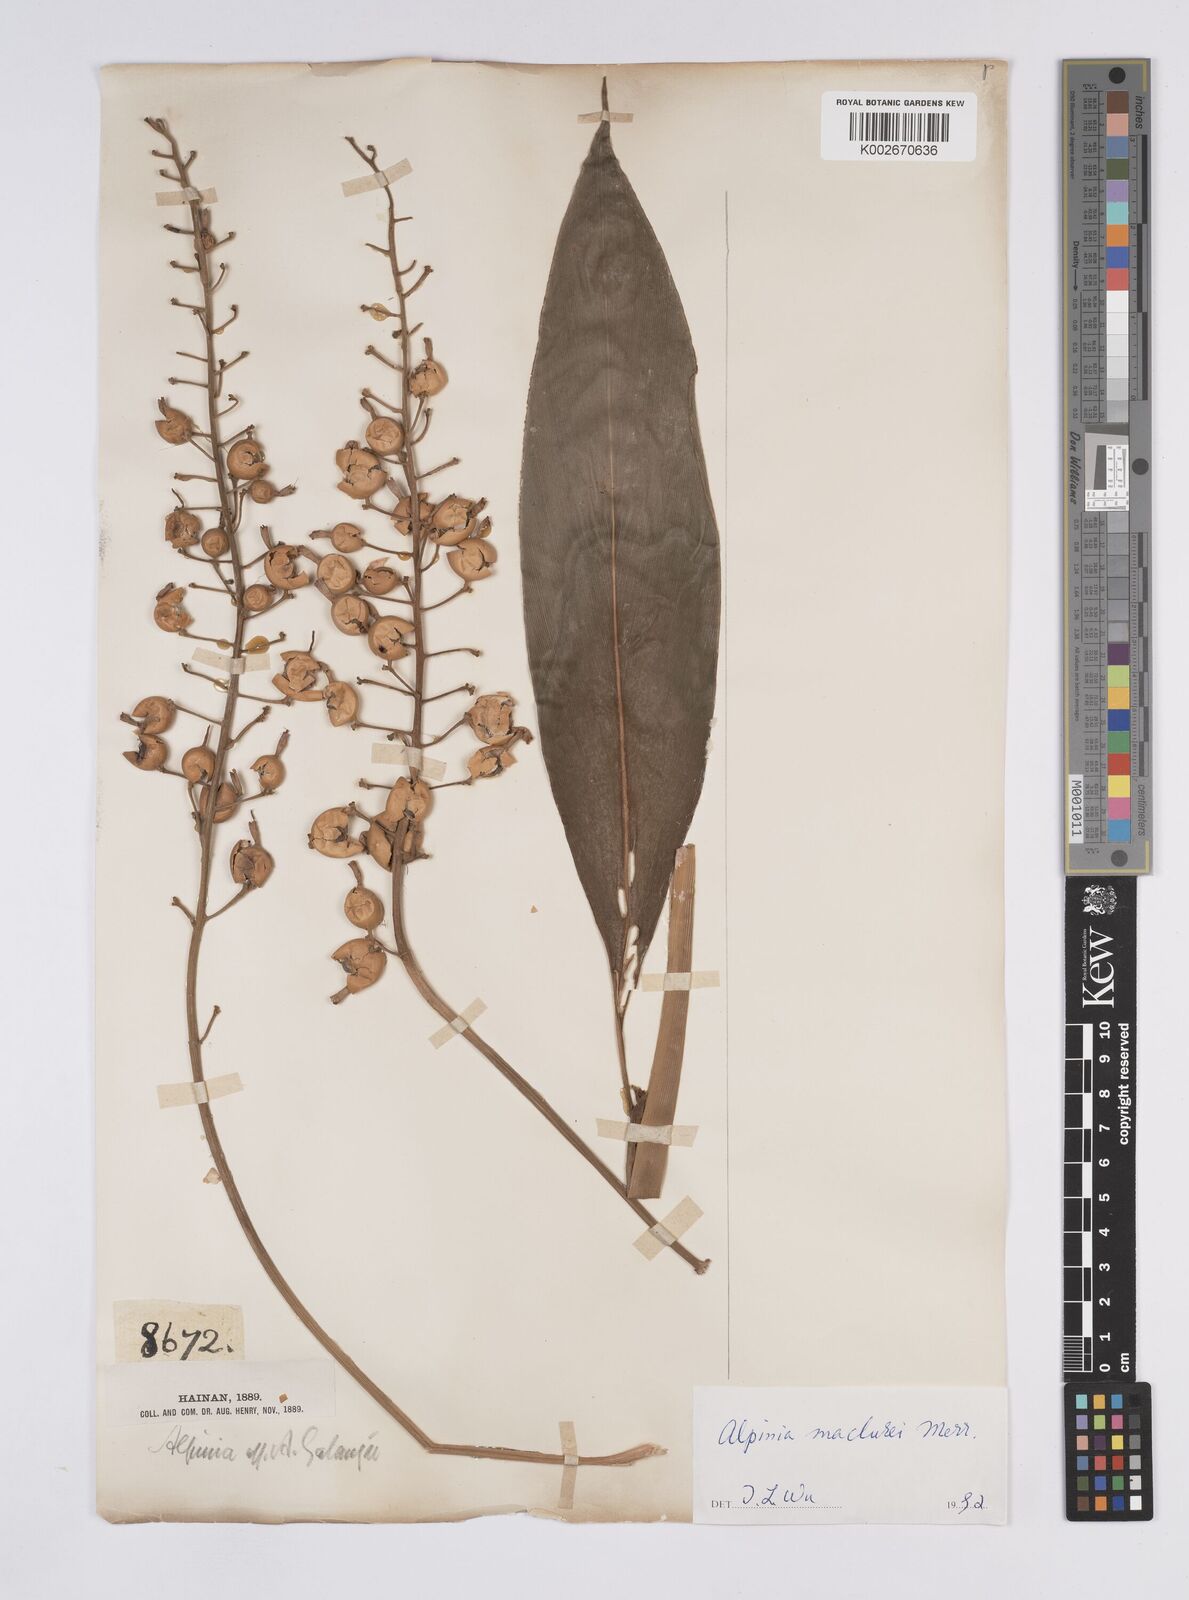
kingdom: Plantae
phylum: Tracheophyta
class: Liliopsida
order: Zingiberales
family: Zingiberaceae
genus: Alpinia
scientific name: Alpinia maclurei
